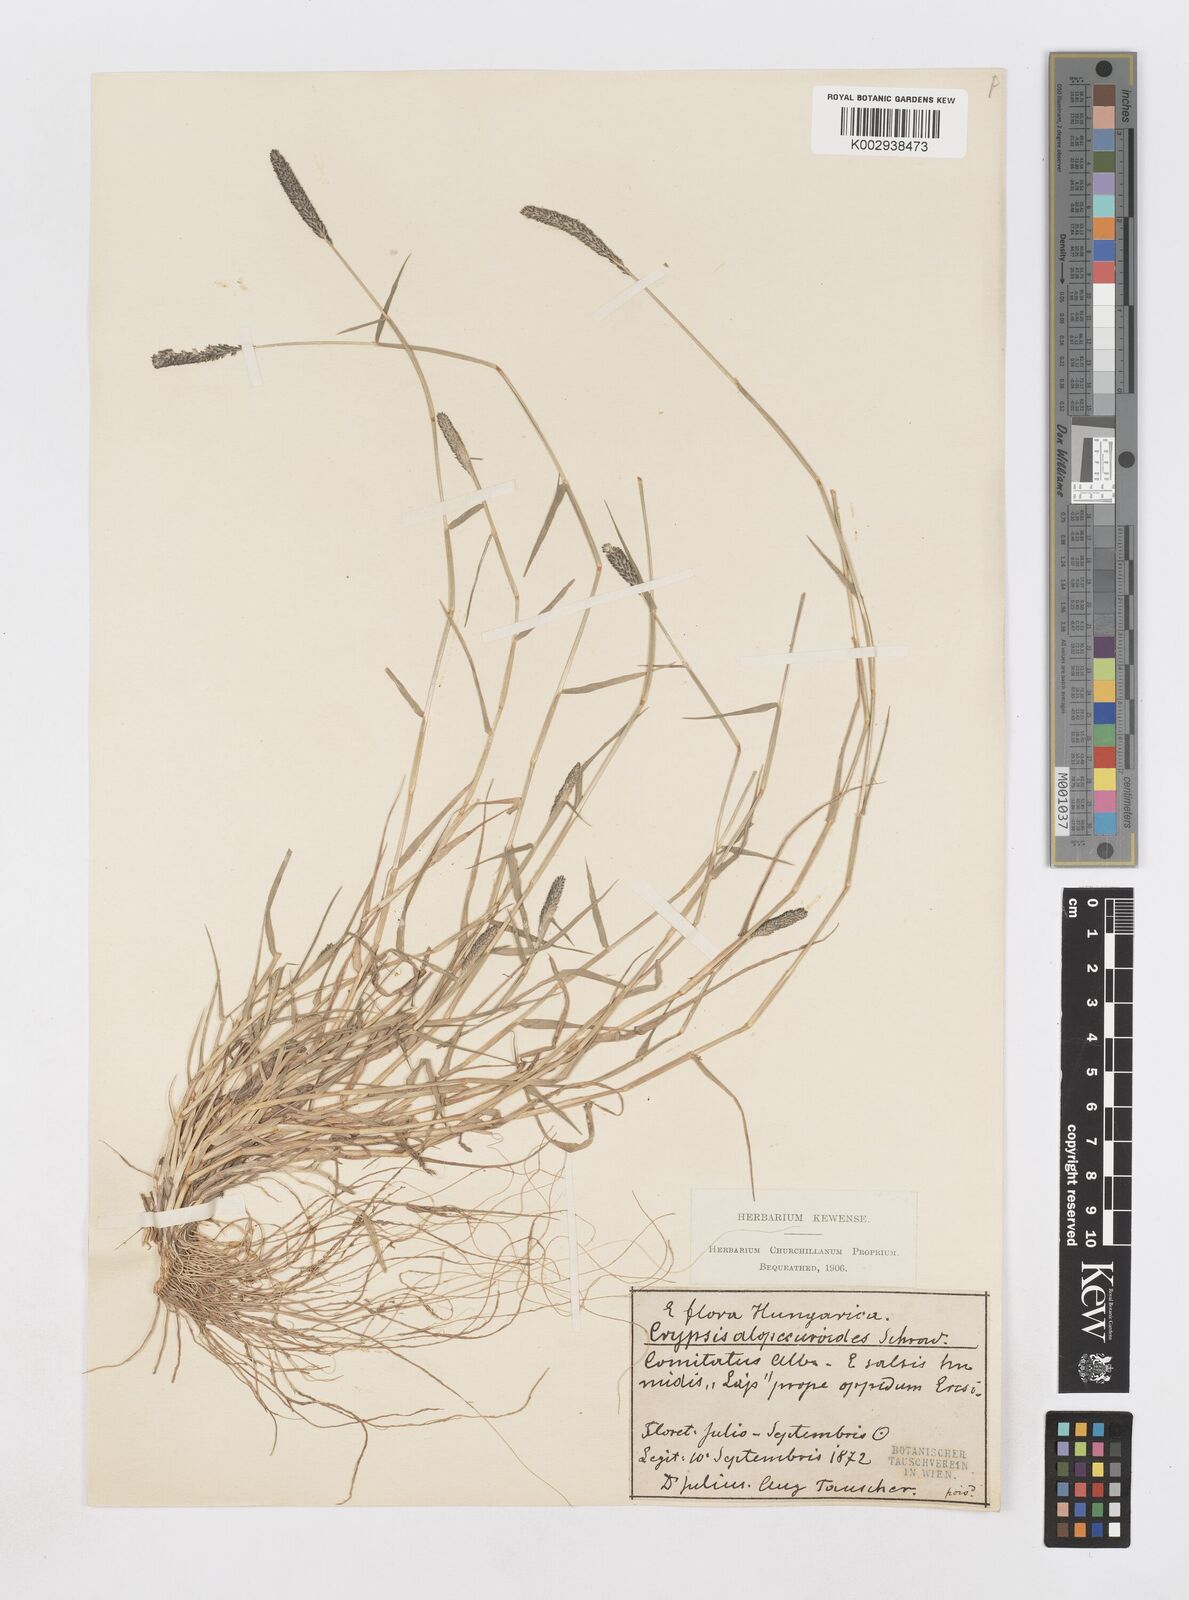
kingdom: Plantae
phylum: Tracheophyta
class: Liliopsida
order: Poales
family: Poaceae
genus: Sporobolus
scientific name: Sporobolus alopecuroides
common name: Foxtail pricklegrass
